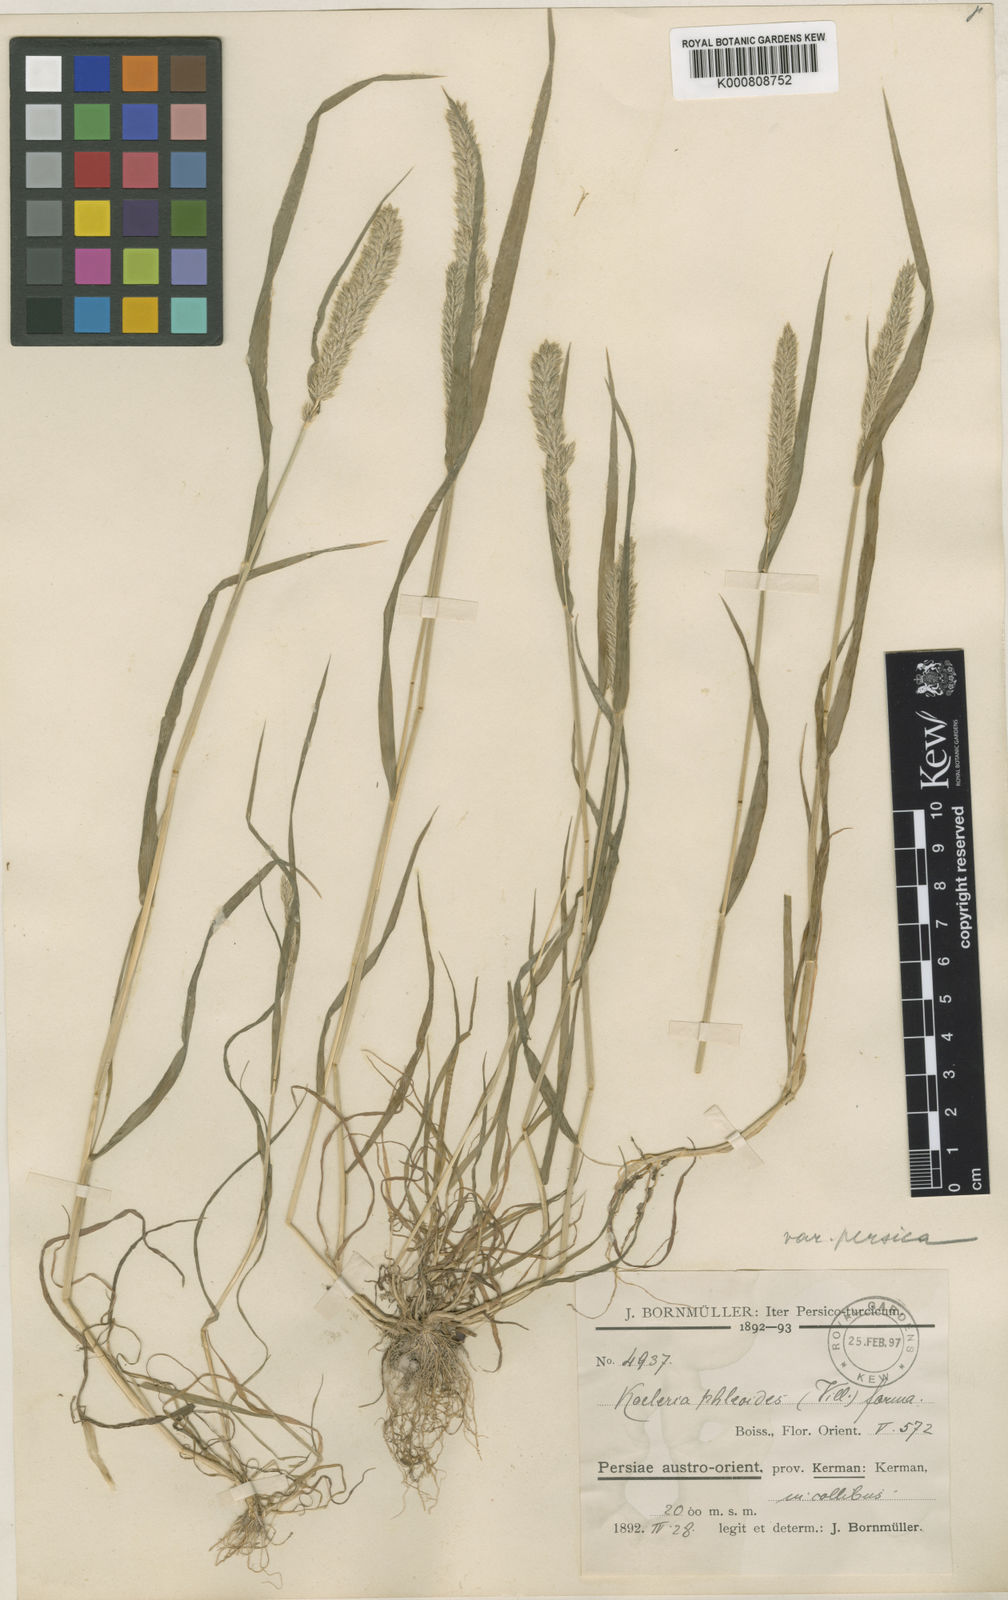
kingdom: Plantae
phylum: Tracheophyta
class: Liliopsida
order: Poales
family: Poaceae
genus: Rostraria
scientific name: Rostraria cristata
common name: Mediterranean hair-grass
